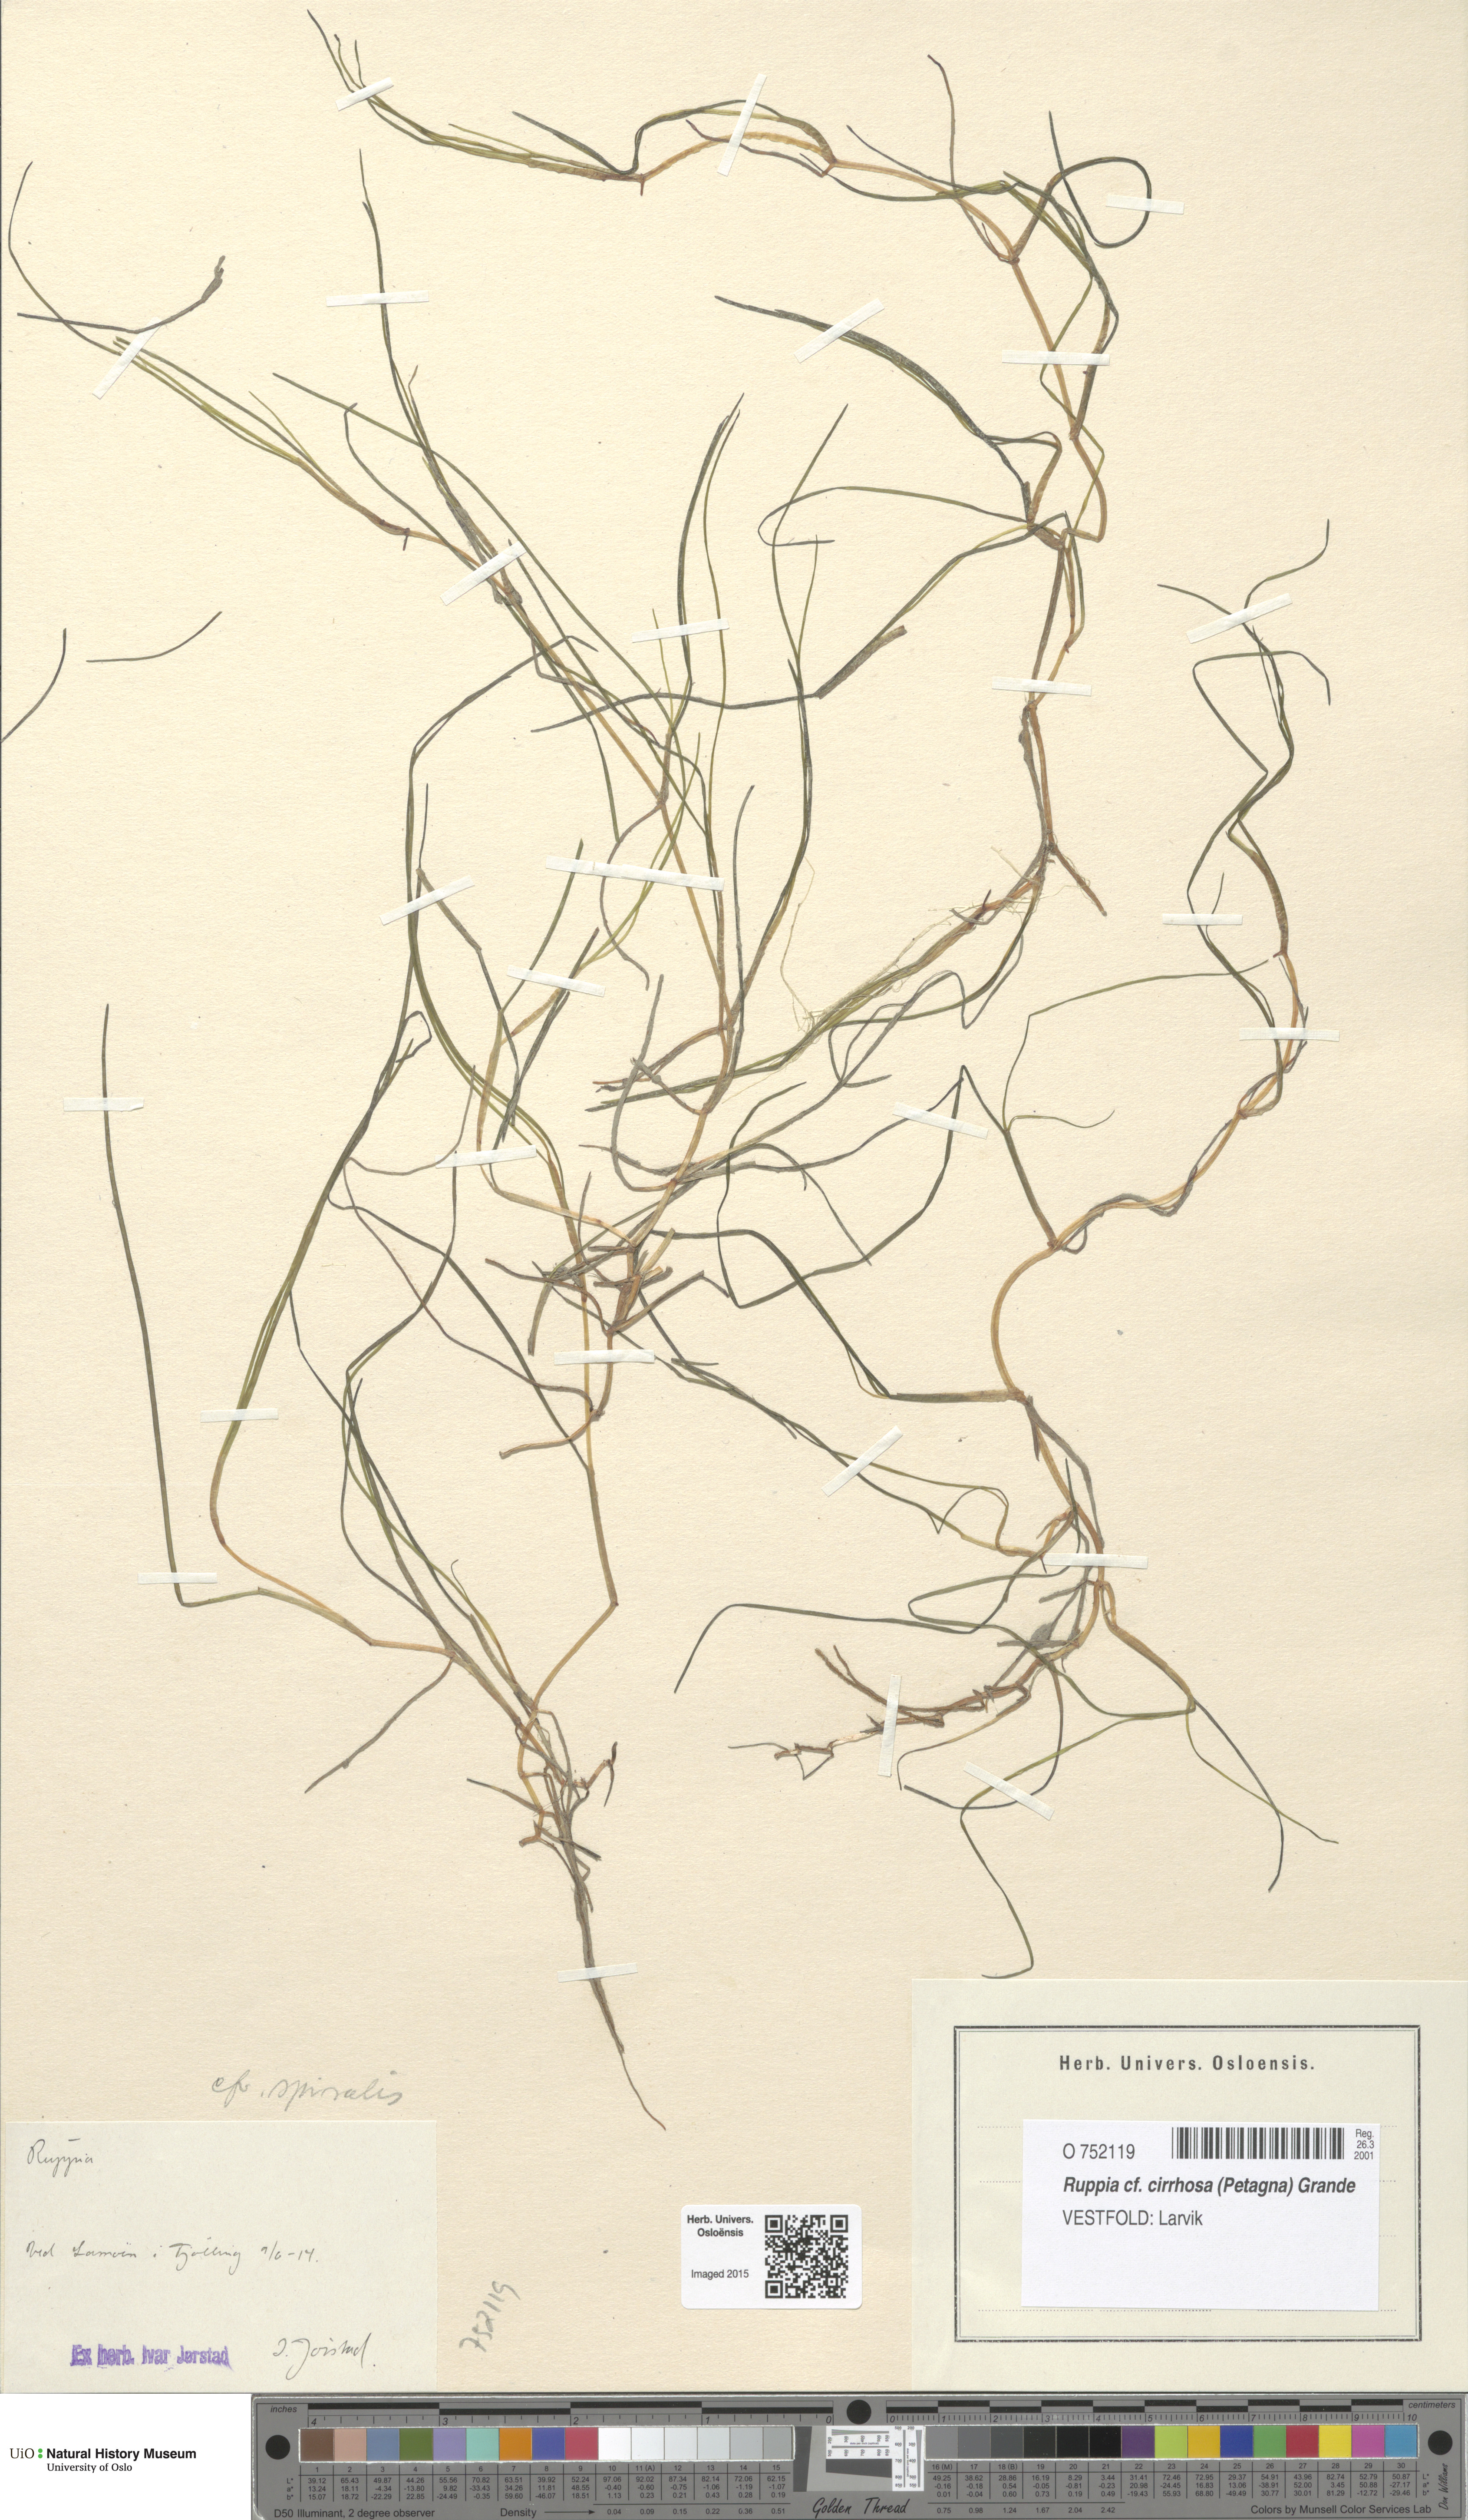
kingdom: Plantae
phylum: Tracheophyta
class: Liliopsida
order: Alismatales
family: Ruppiaceae
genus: Ruppia
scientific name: Ruppia cirrhosa
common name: Spiral tasselweed
